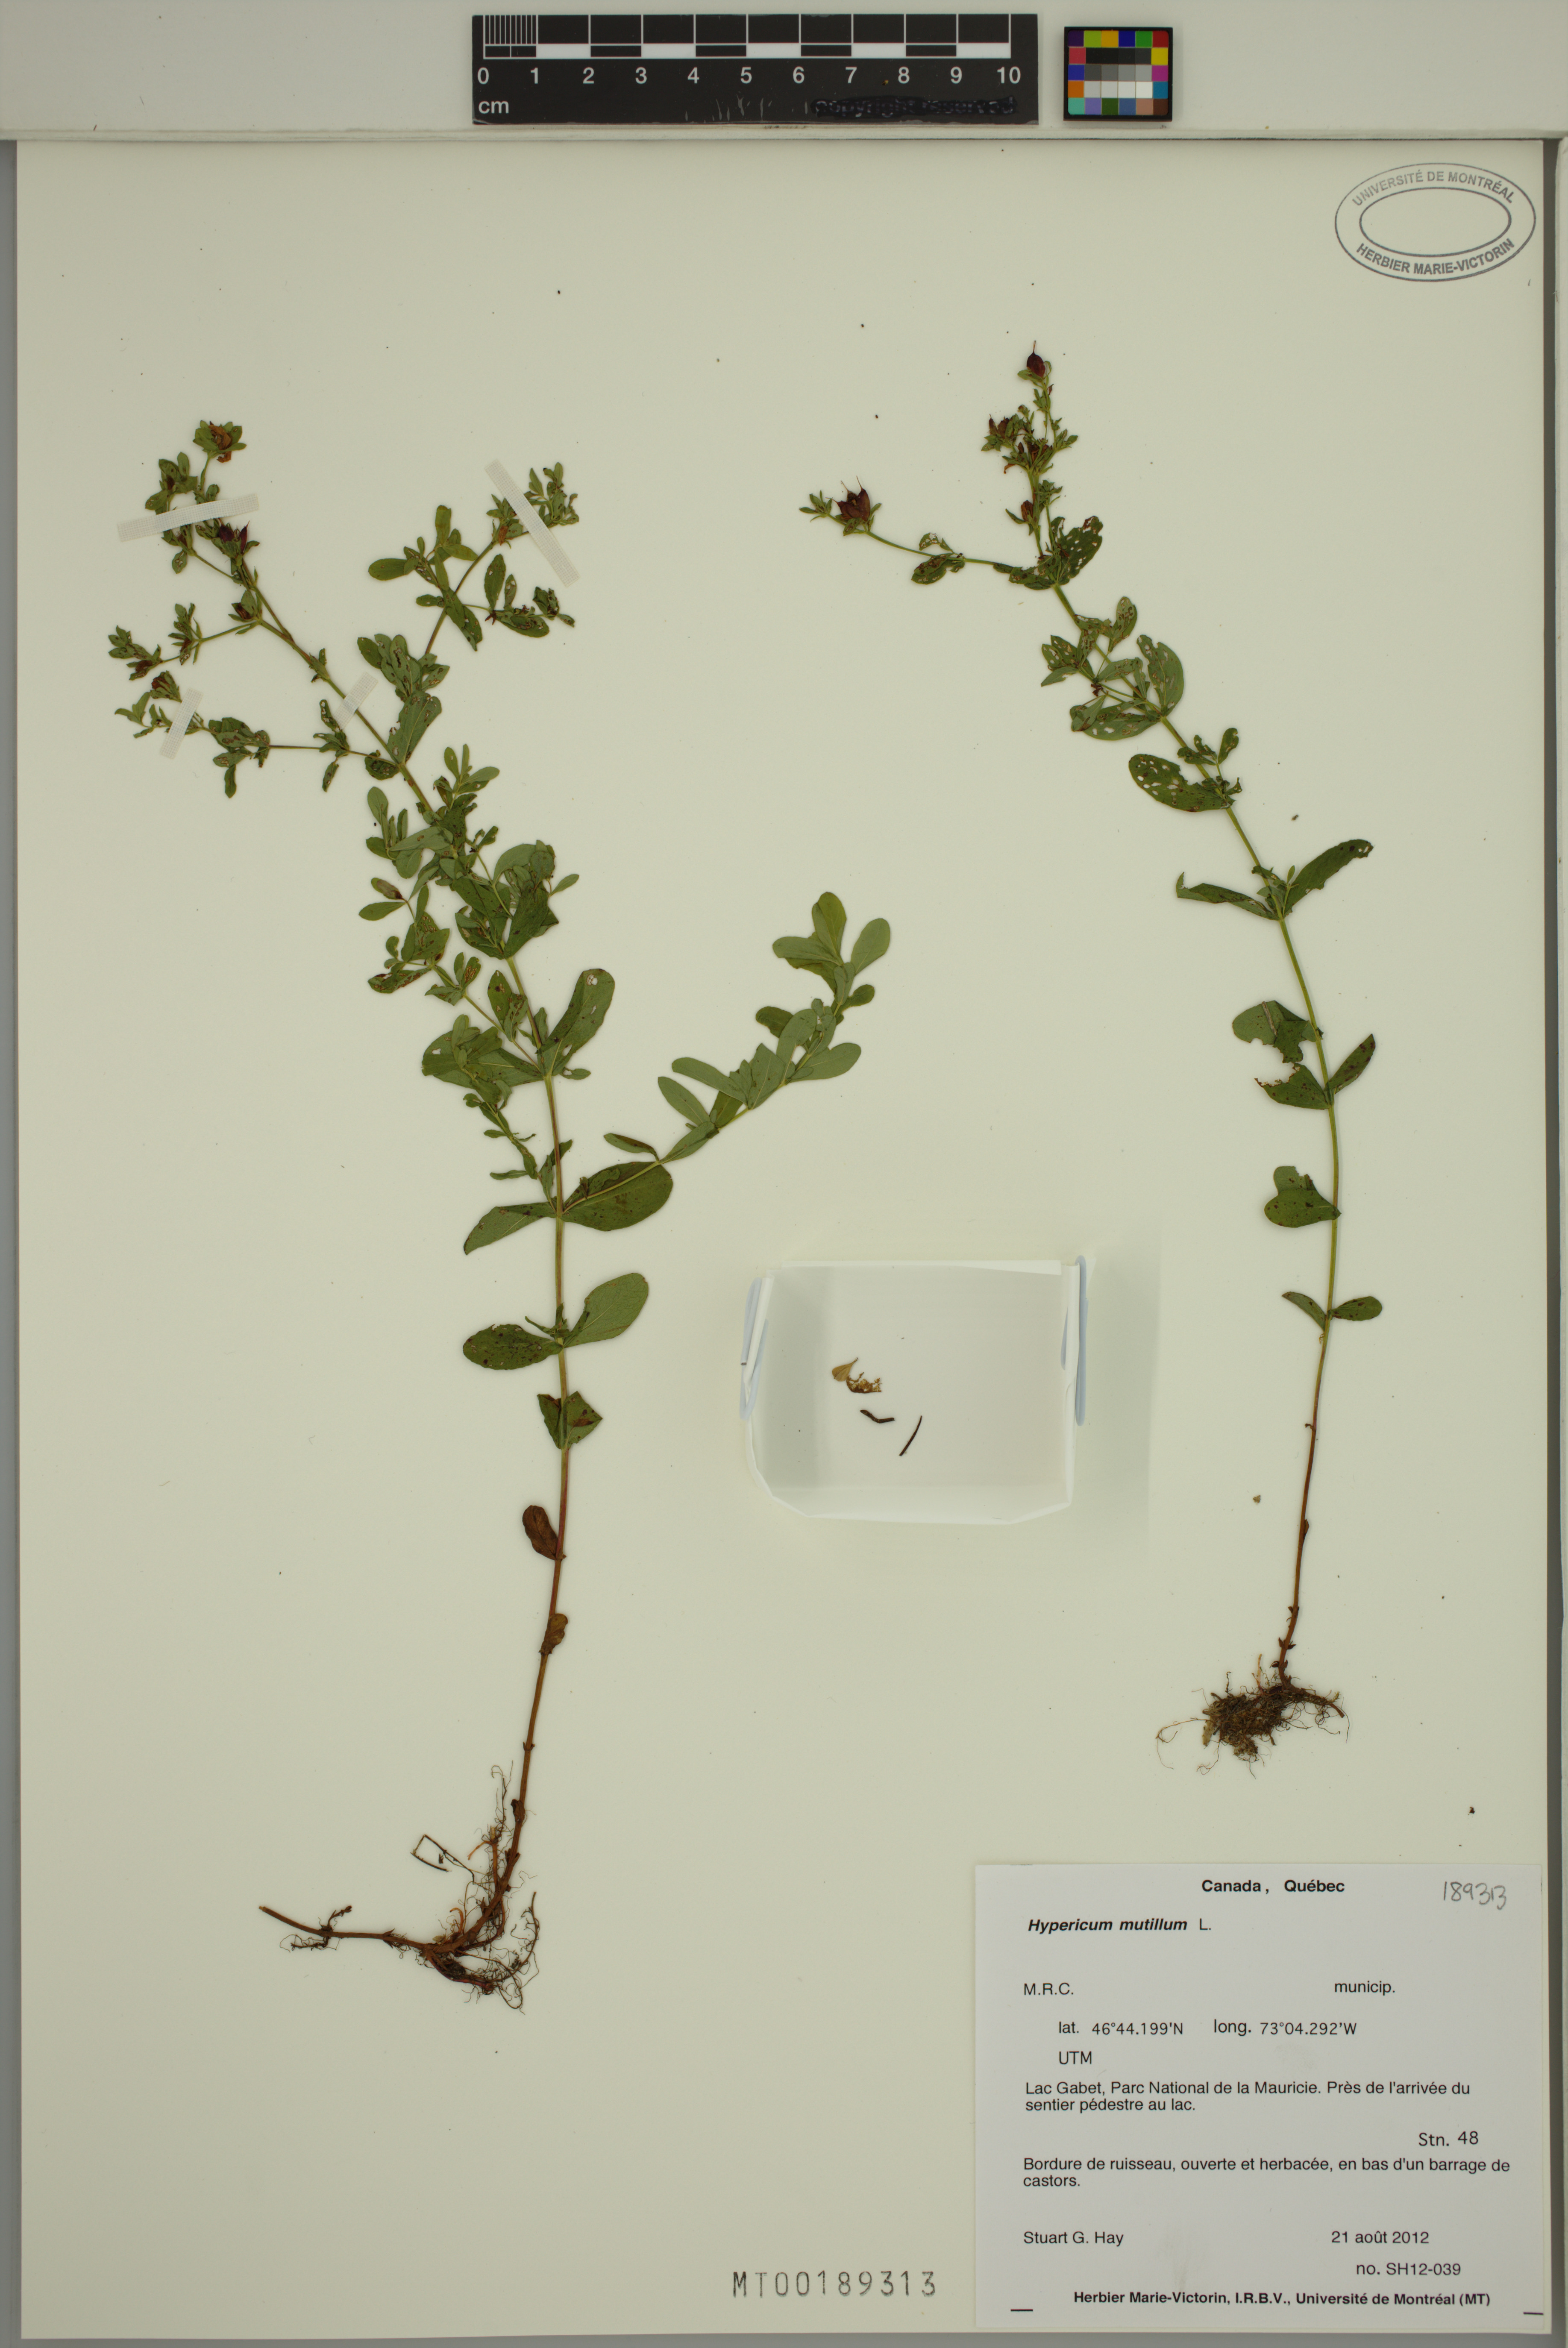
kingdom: Plantae
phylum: Tracheophyta
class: Magnoliopsida
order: Malpighiales
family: Hypericaceae
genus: Hypericum
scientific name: Hypericum mutilum
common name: Dwarf st. john's-wort
